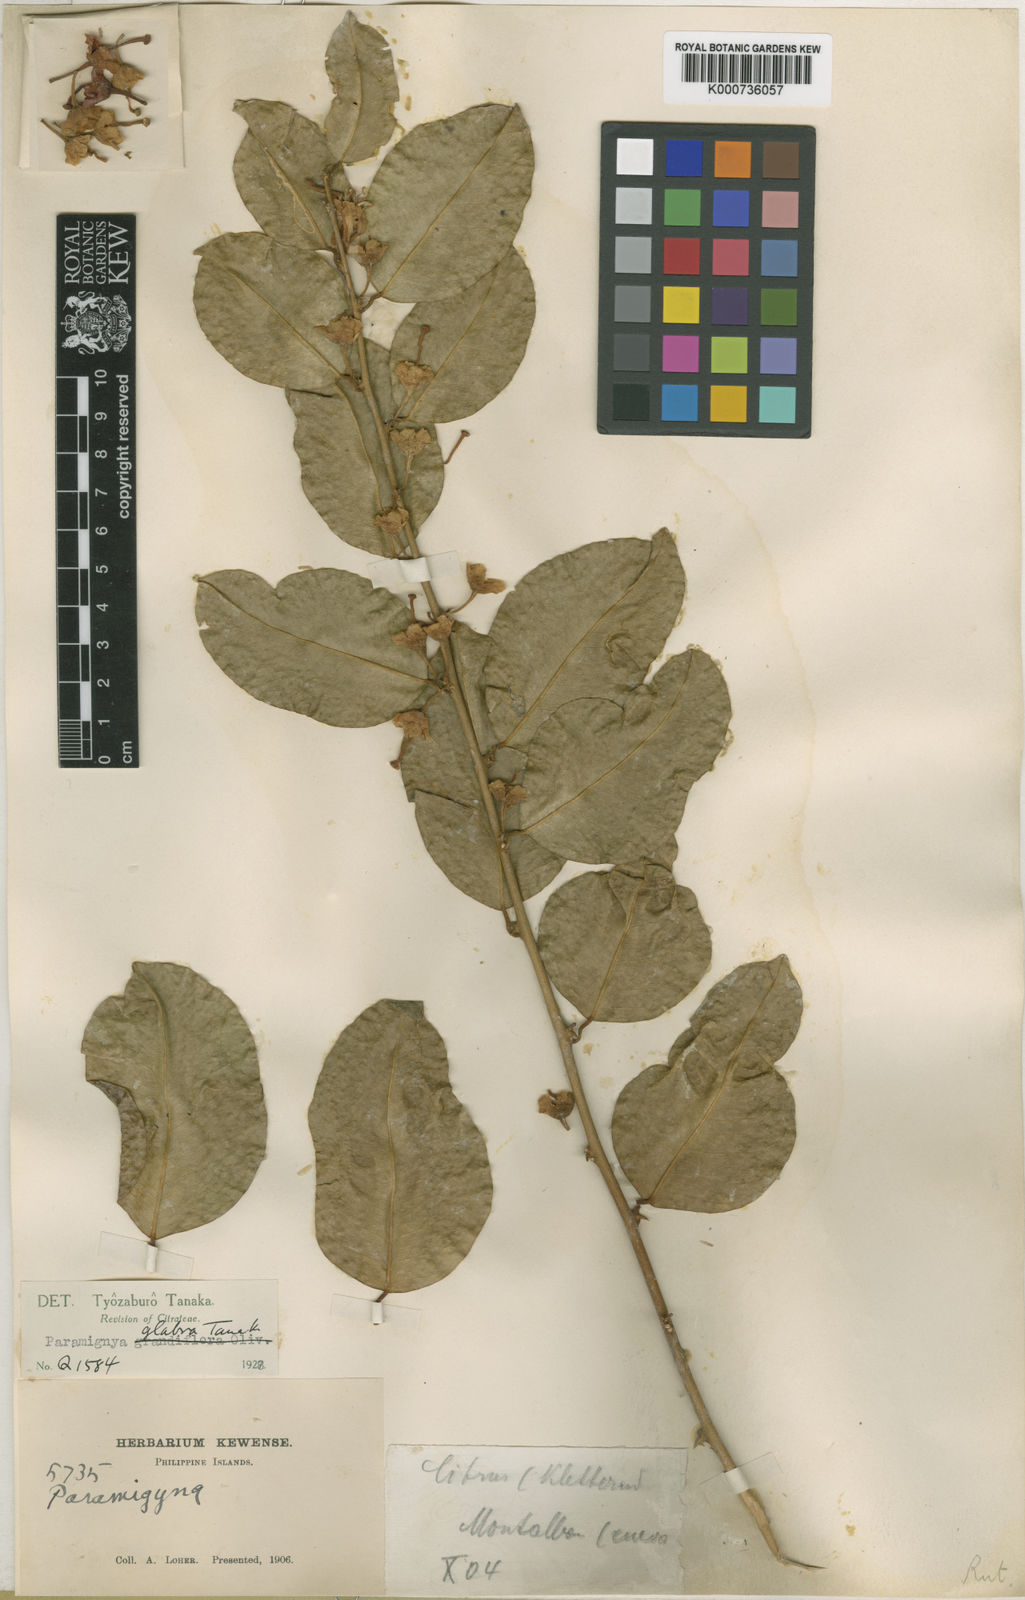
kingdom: Plantae
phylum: Tracheophyta
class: Magnoliopsida
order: Sapindales
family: Rutaceae
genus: Paramignya
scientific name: Paramignya grandiflora
